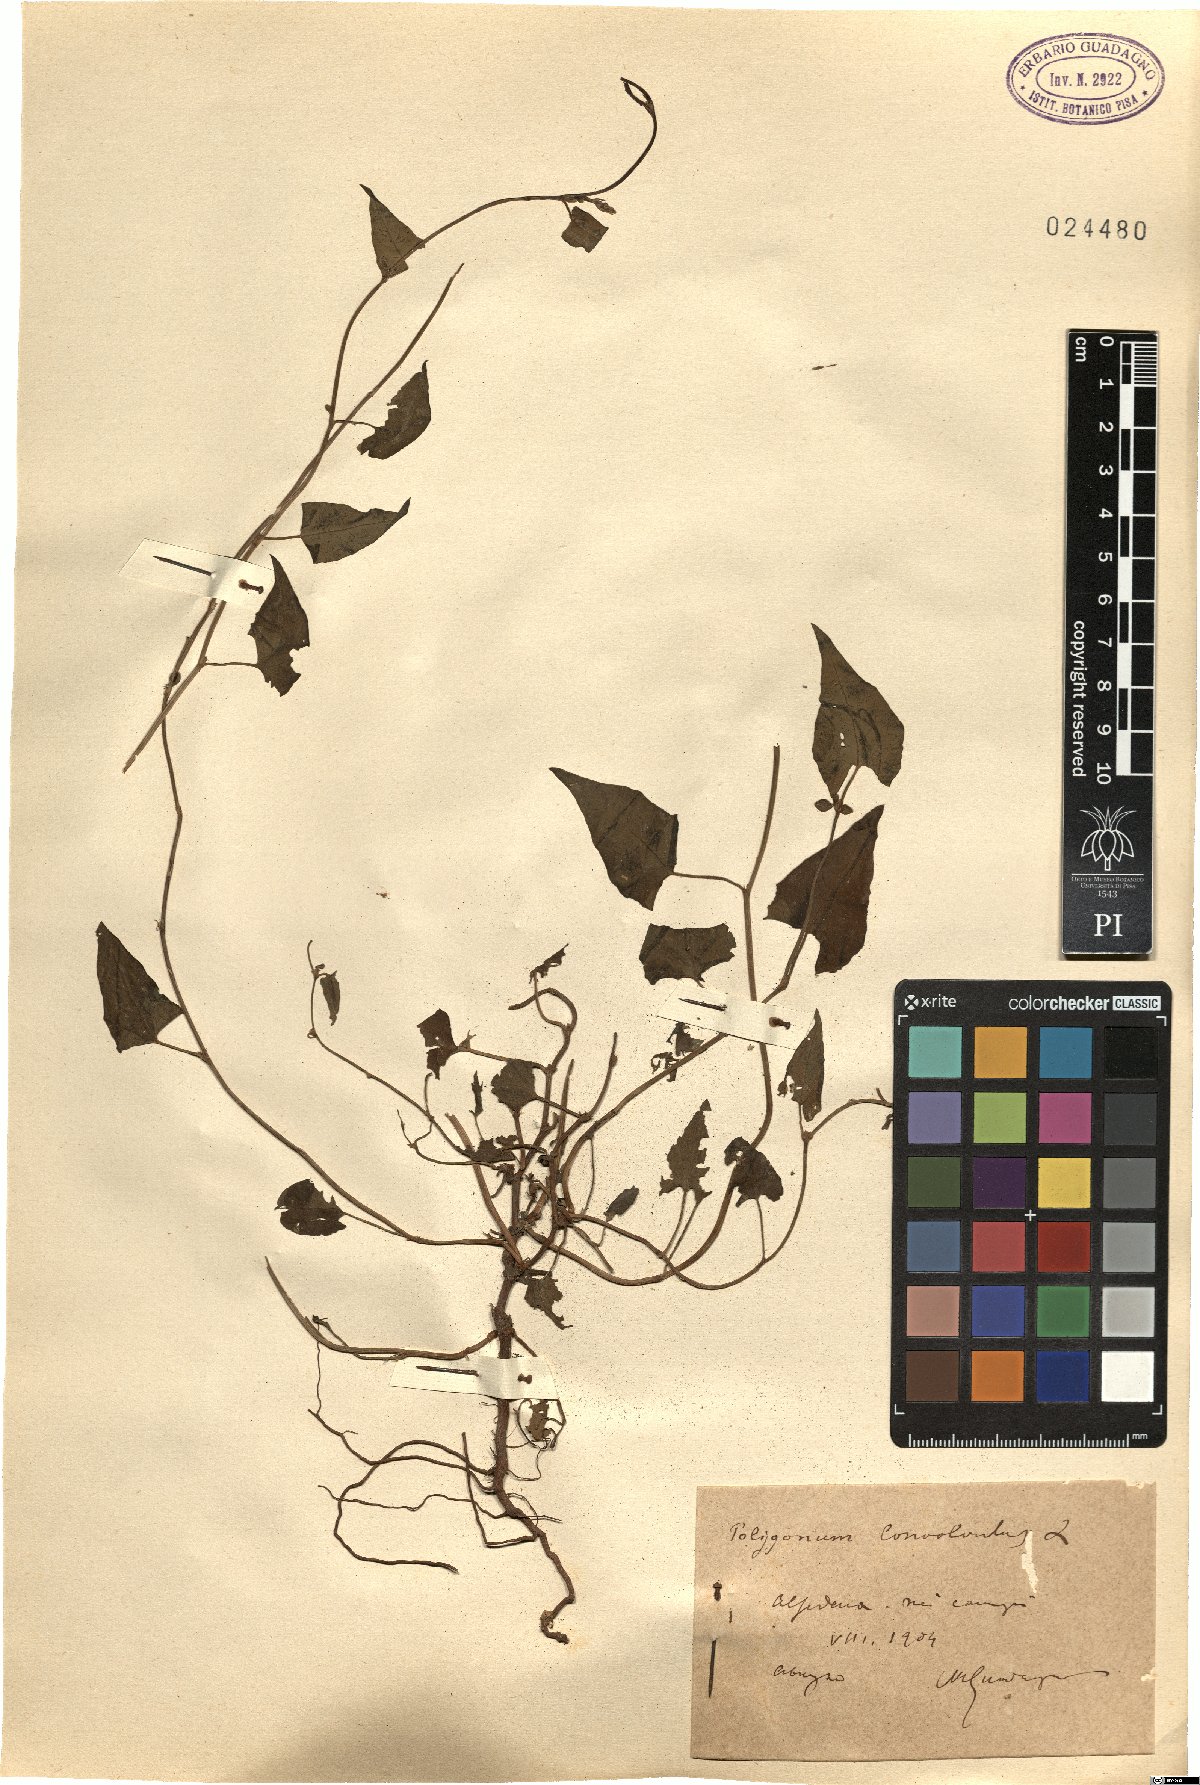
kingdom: Plantae
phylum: Tracheophyta
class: Magnoliopsida
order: Caryophyllales
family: Polygonaceae
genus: Fallopia
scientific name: Fallopia convolvulus
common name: Black bindweed
